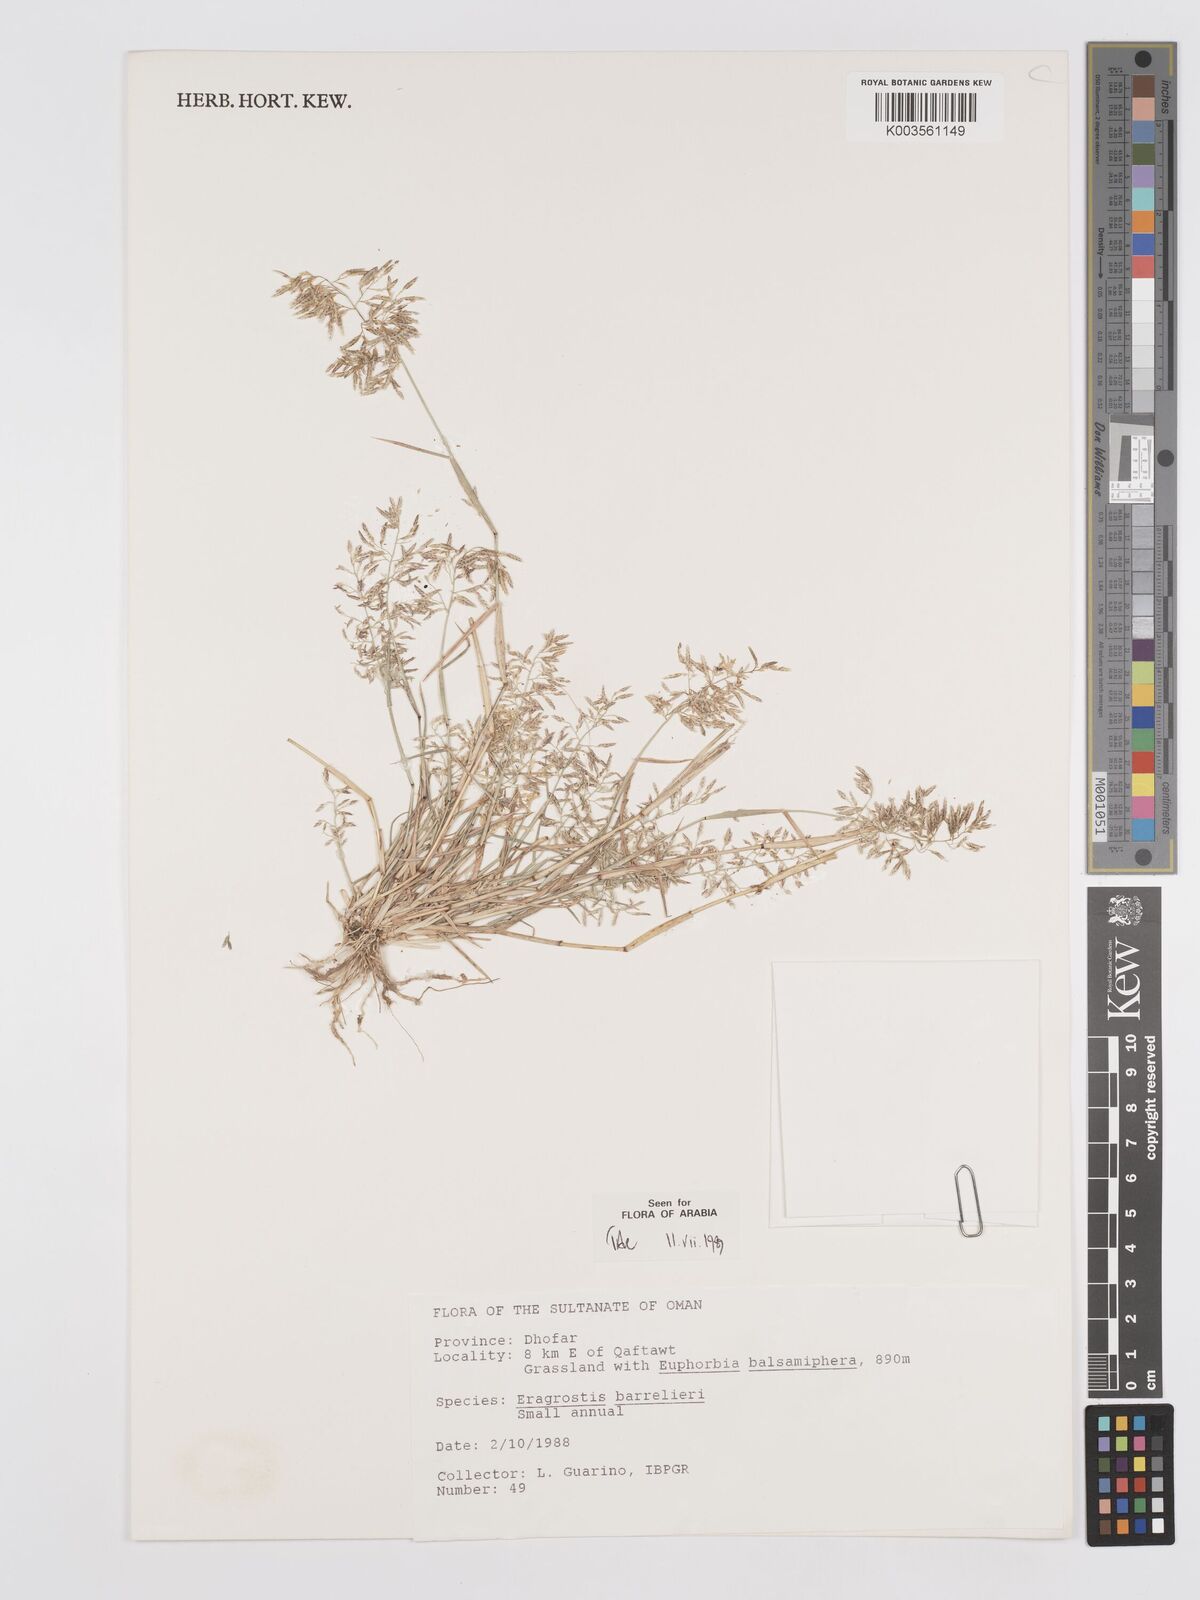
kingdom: Plantae
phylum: Tracheophyta
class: Liliopsida
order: Poales
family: Poaceae
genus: Eragrostis
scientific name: Eragrostis barrelieri
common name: Mediterranean lovegrass
